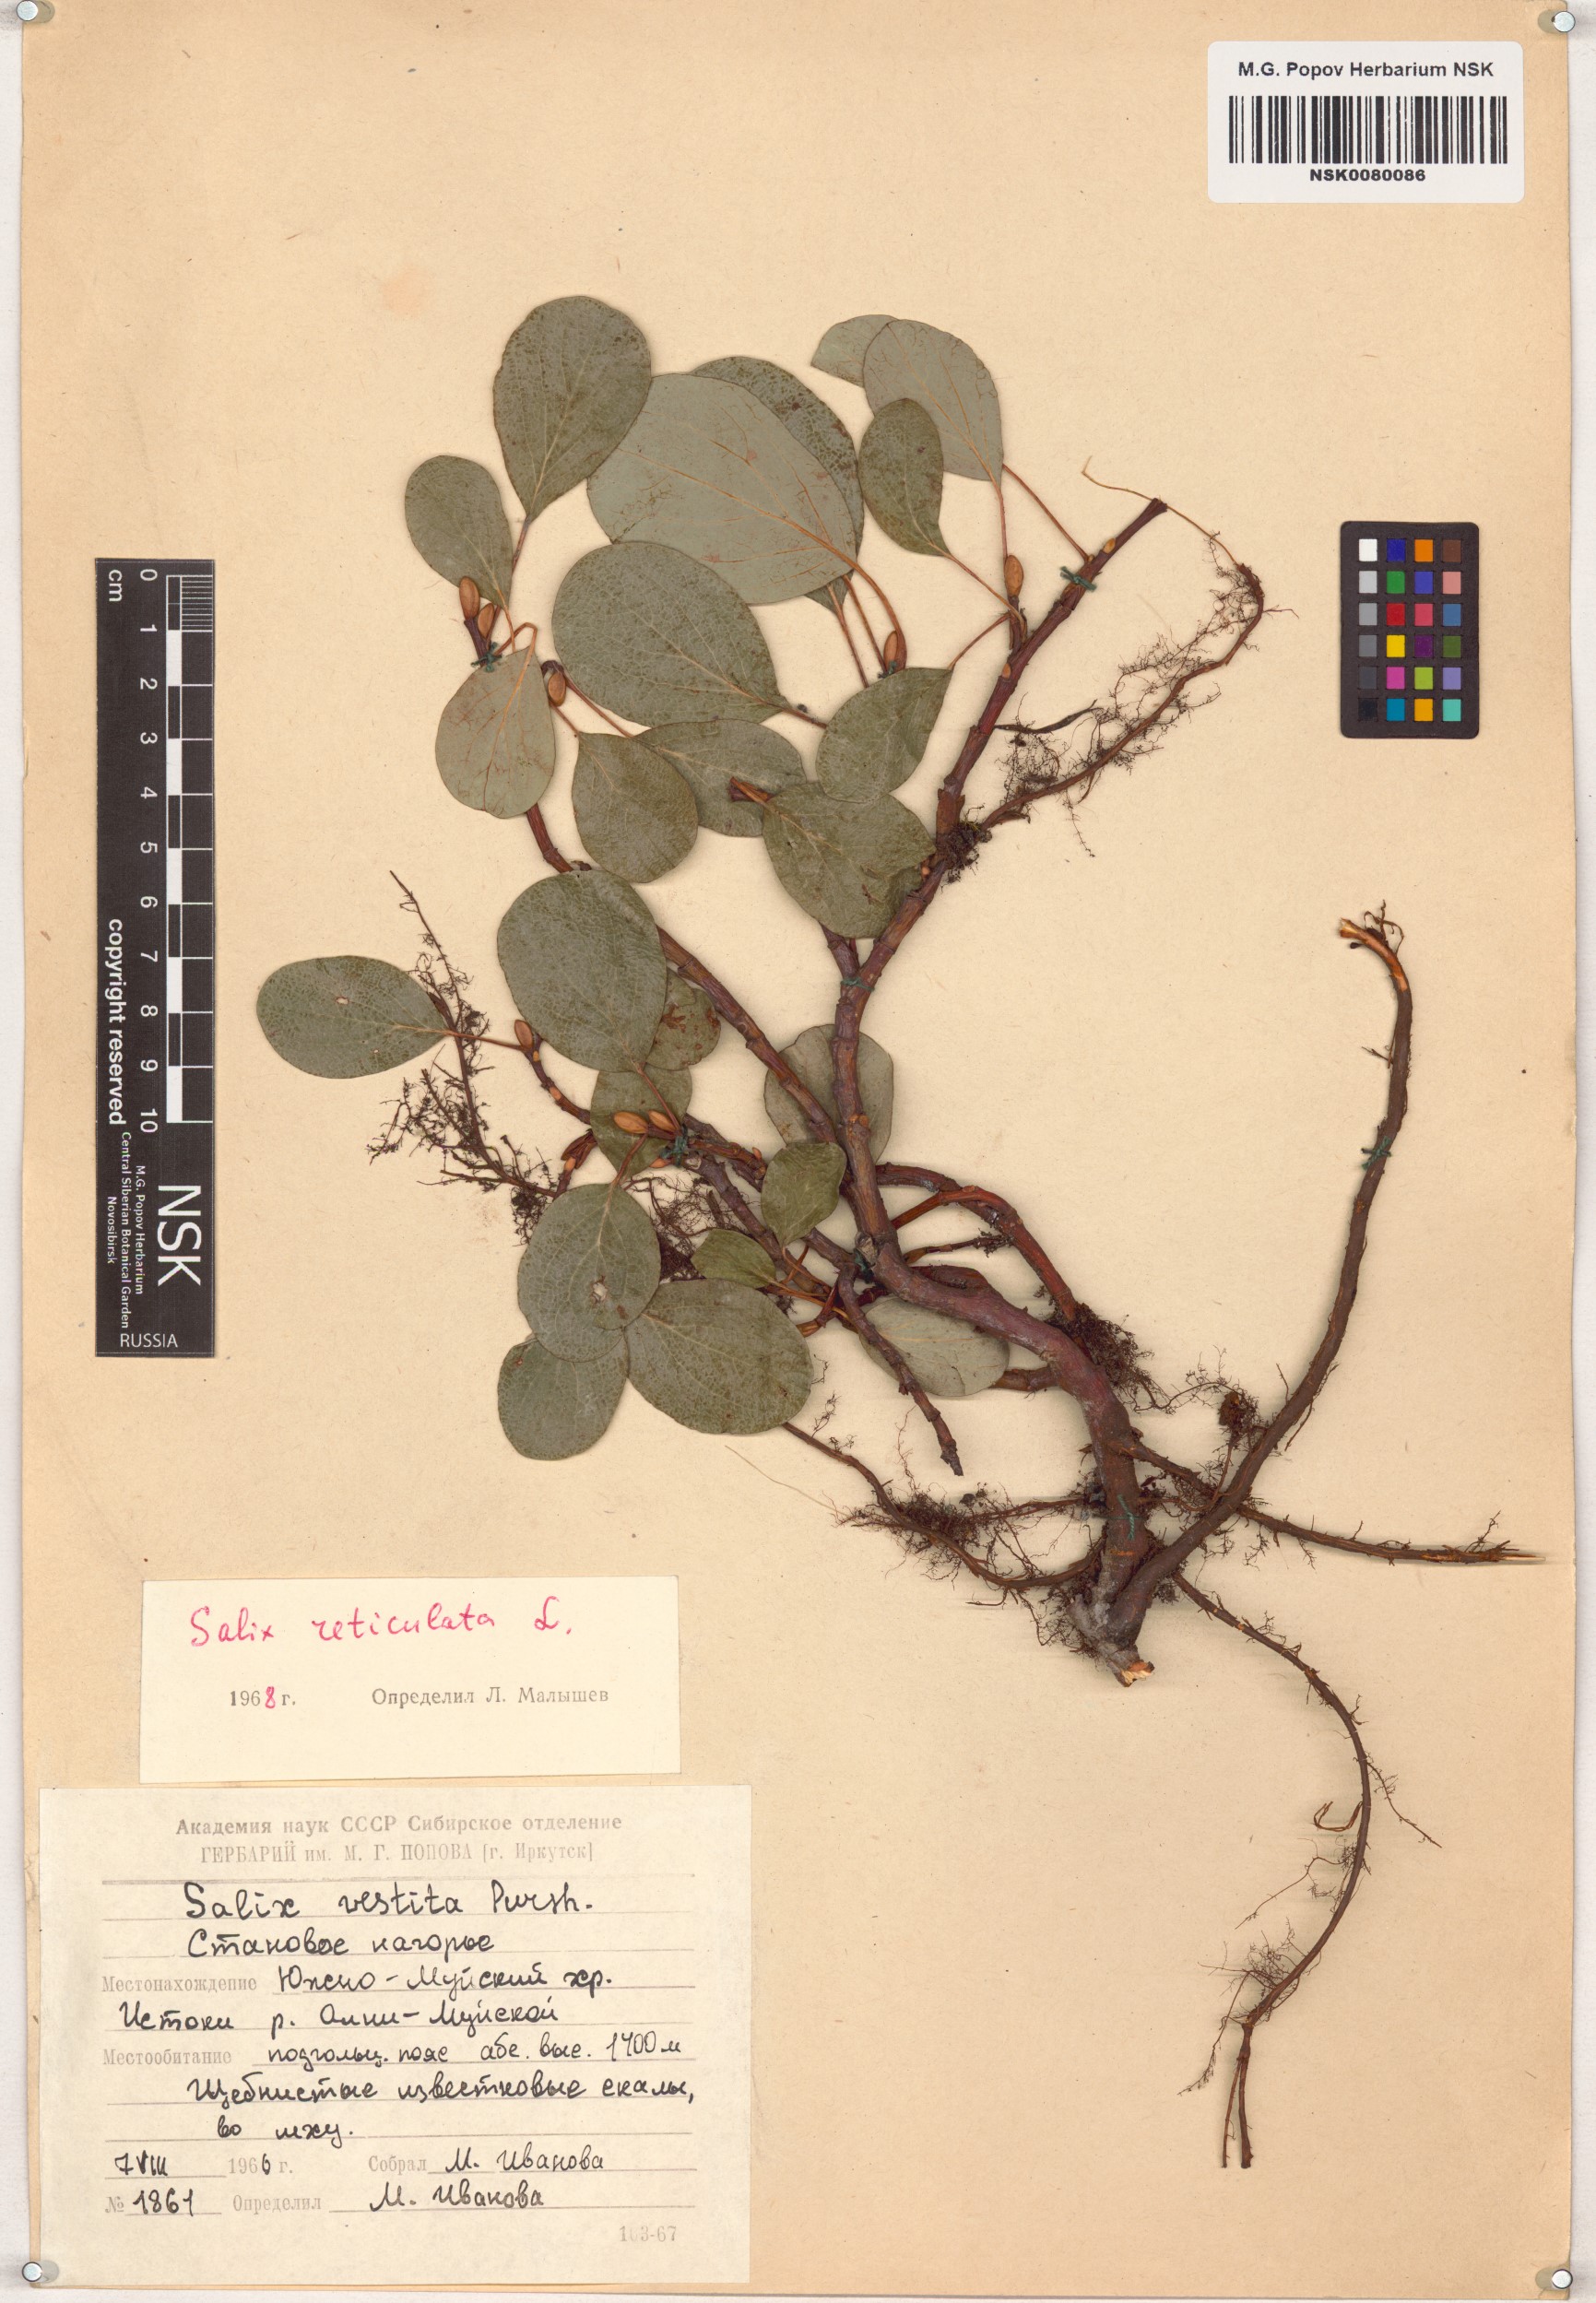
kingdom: Plantae
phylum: Tracheophyta
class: Magnoliopsida
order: Malpighiales
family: Salicaceae
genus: Salix
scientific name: Salix reticulata
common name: Net-leaved willow
